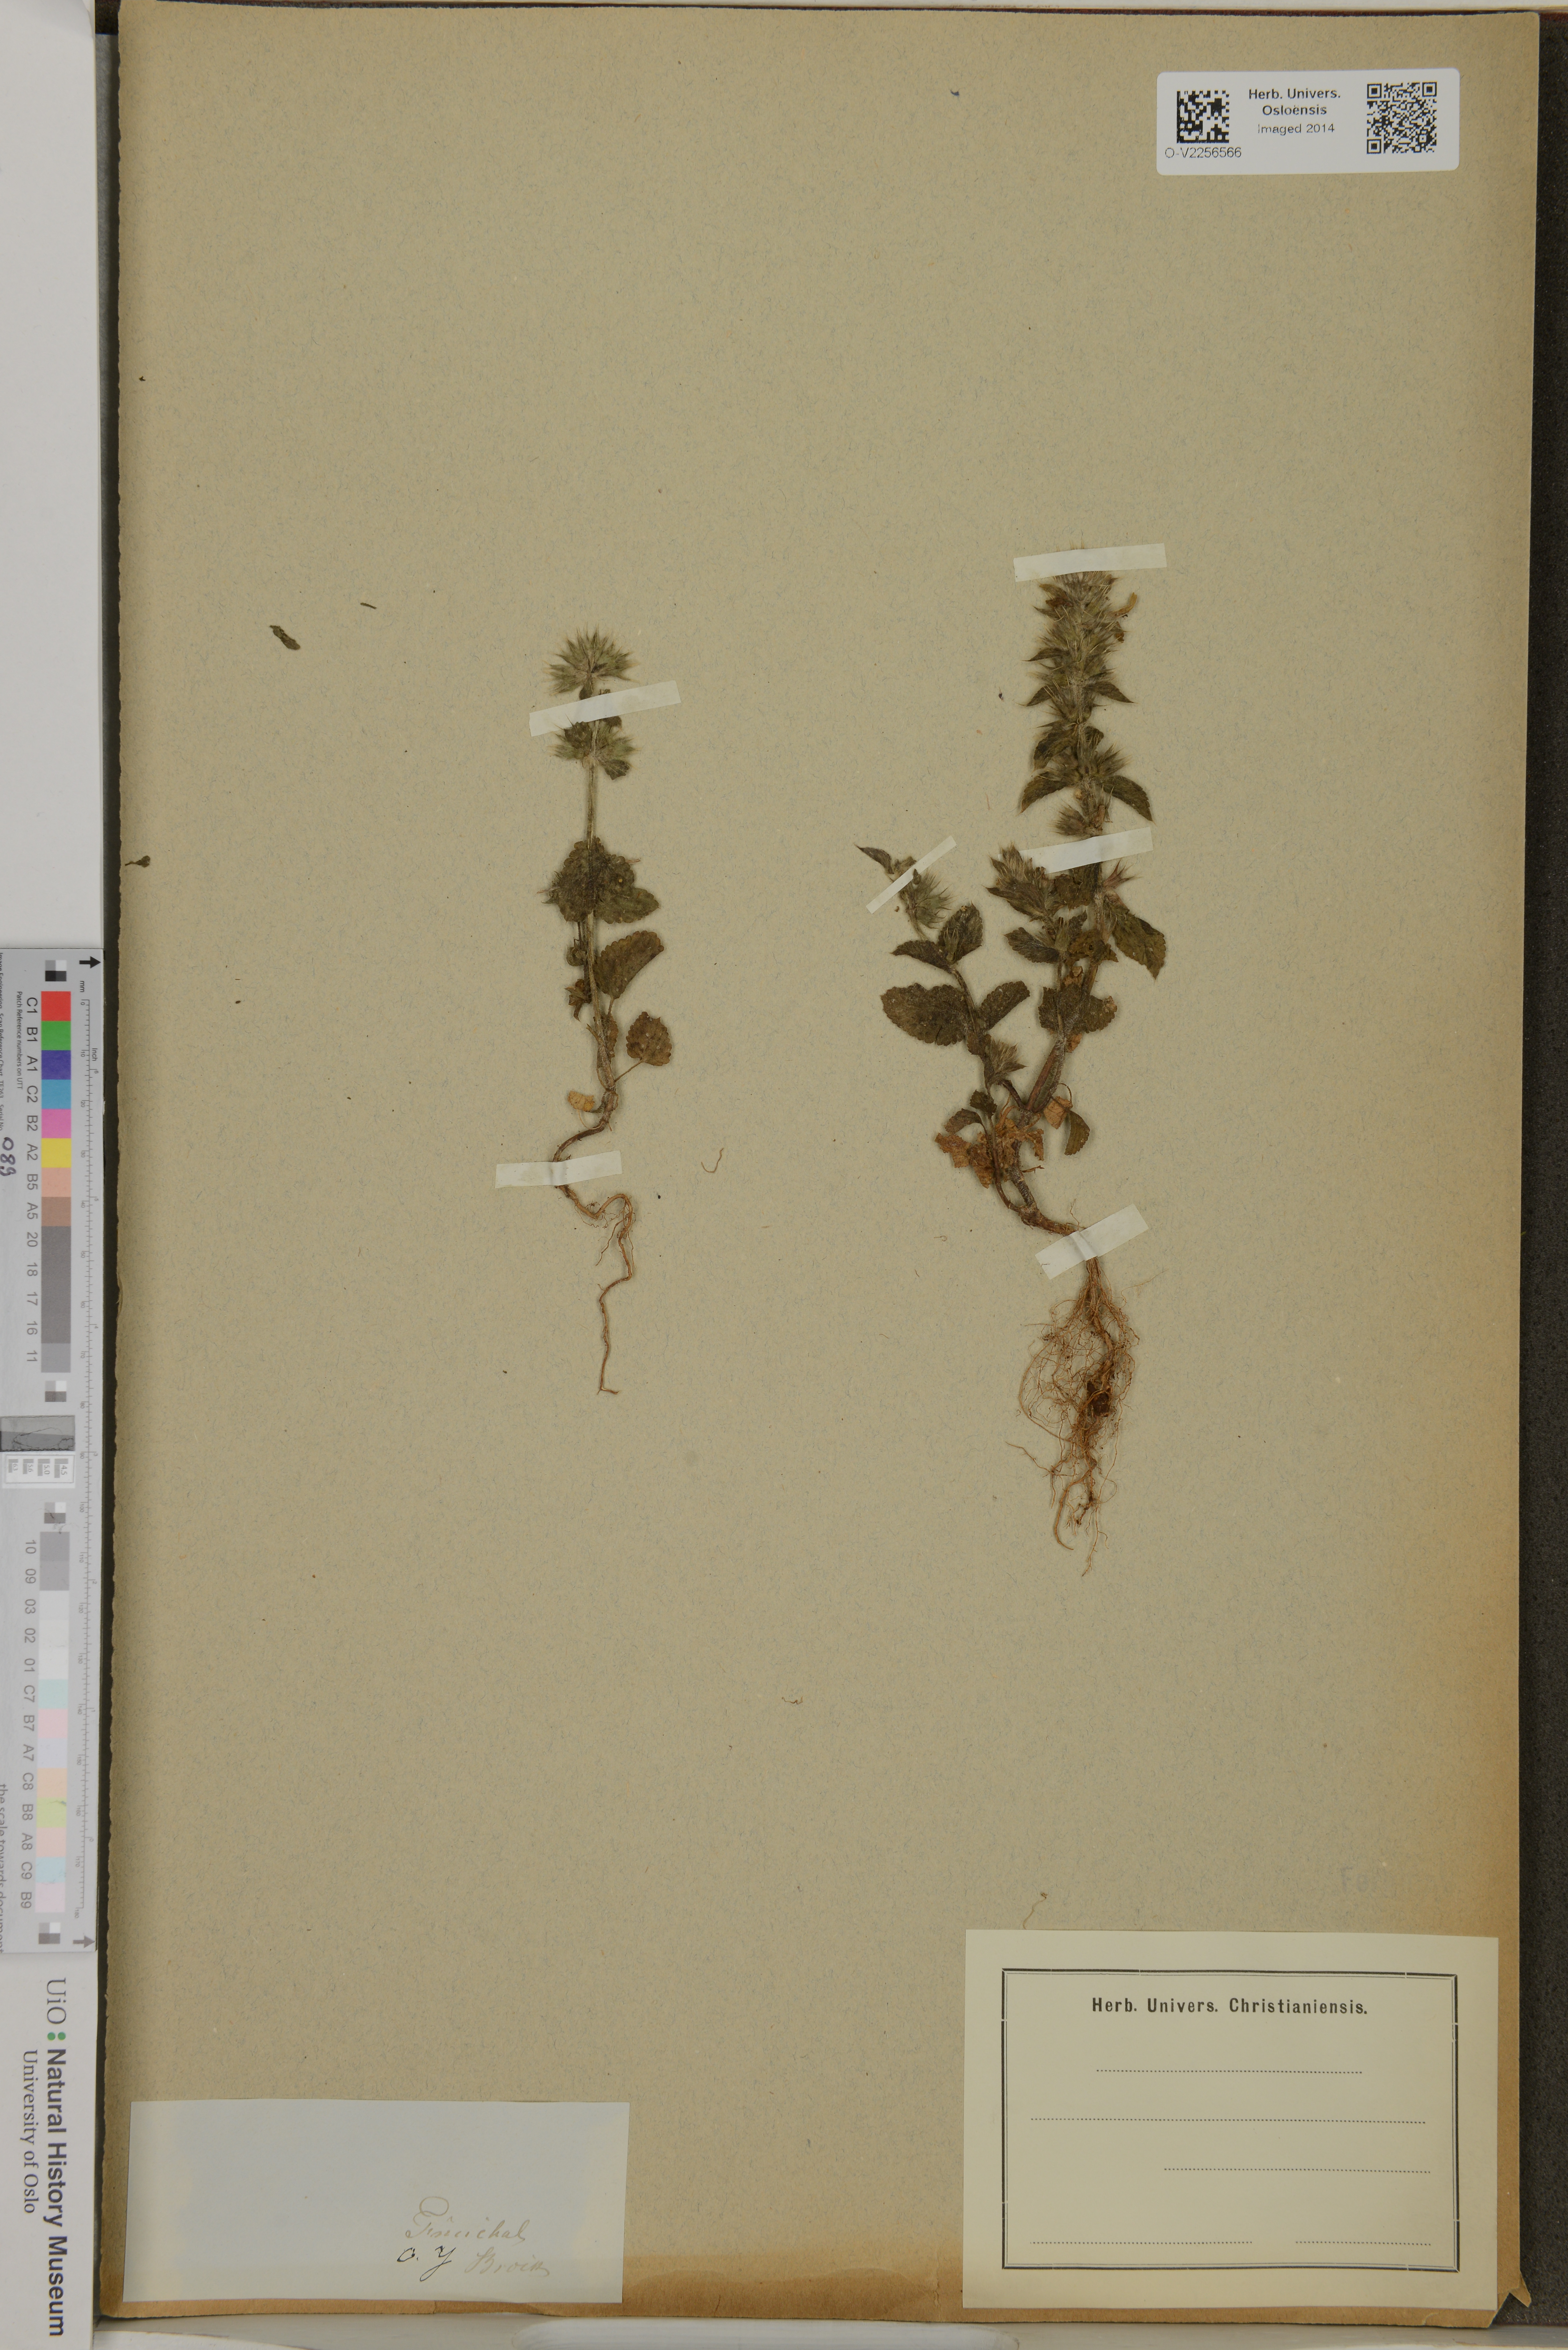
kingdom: Plantae
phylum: Tracheophyta
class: Magnoliopsida
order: Lamiales
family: Lamiaceae
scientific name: Lamiaceae
